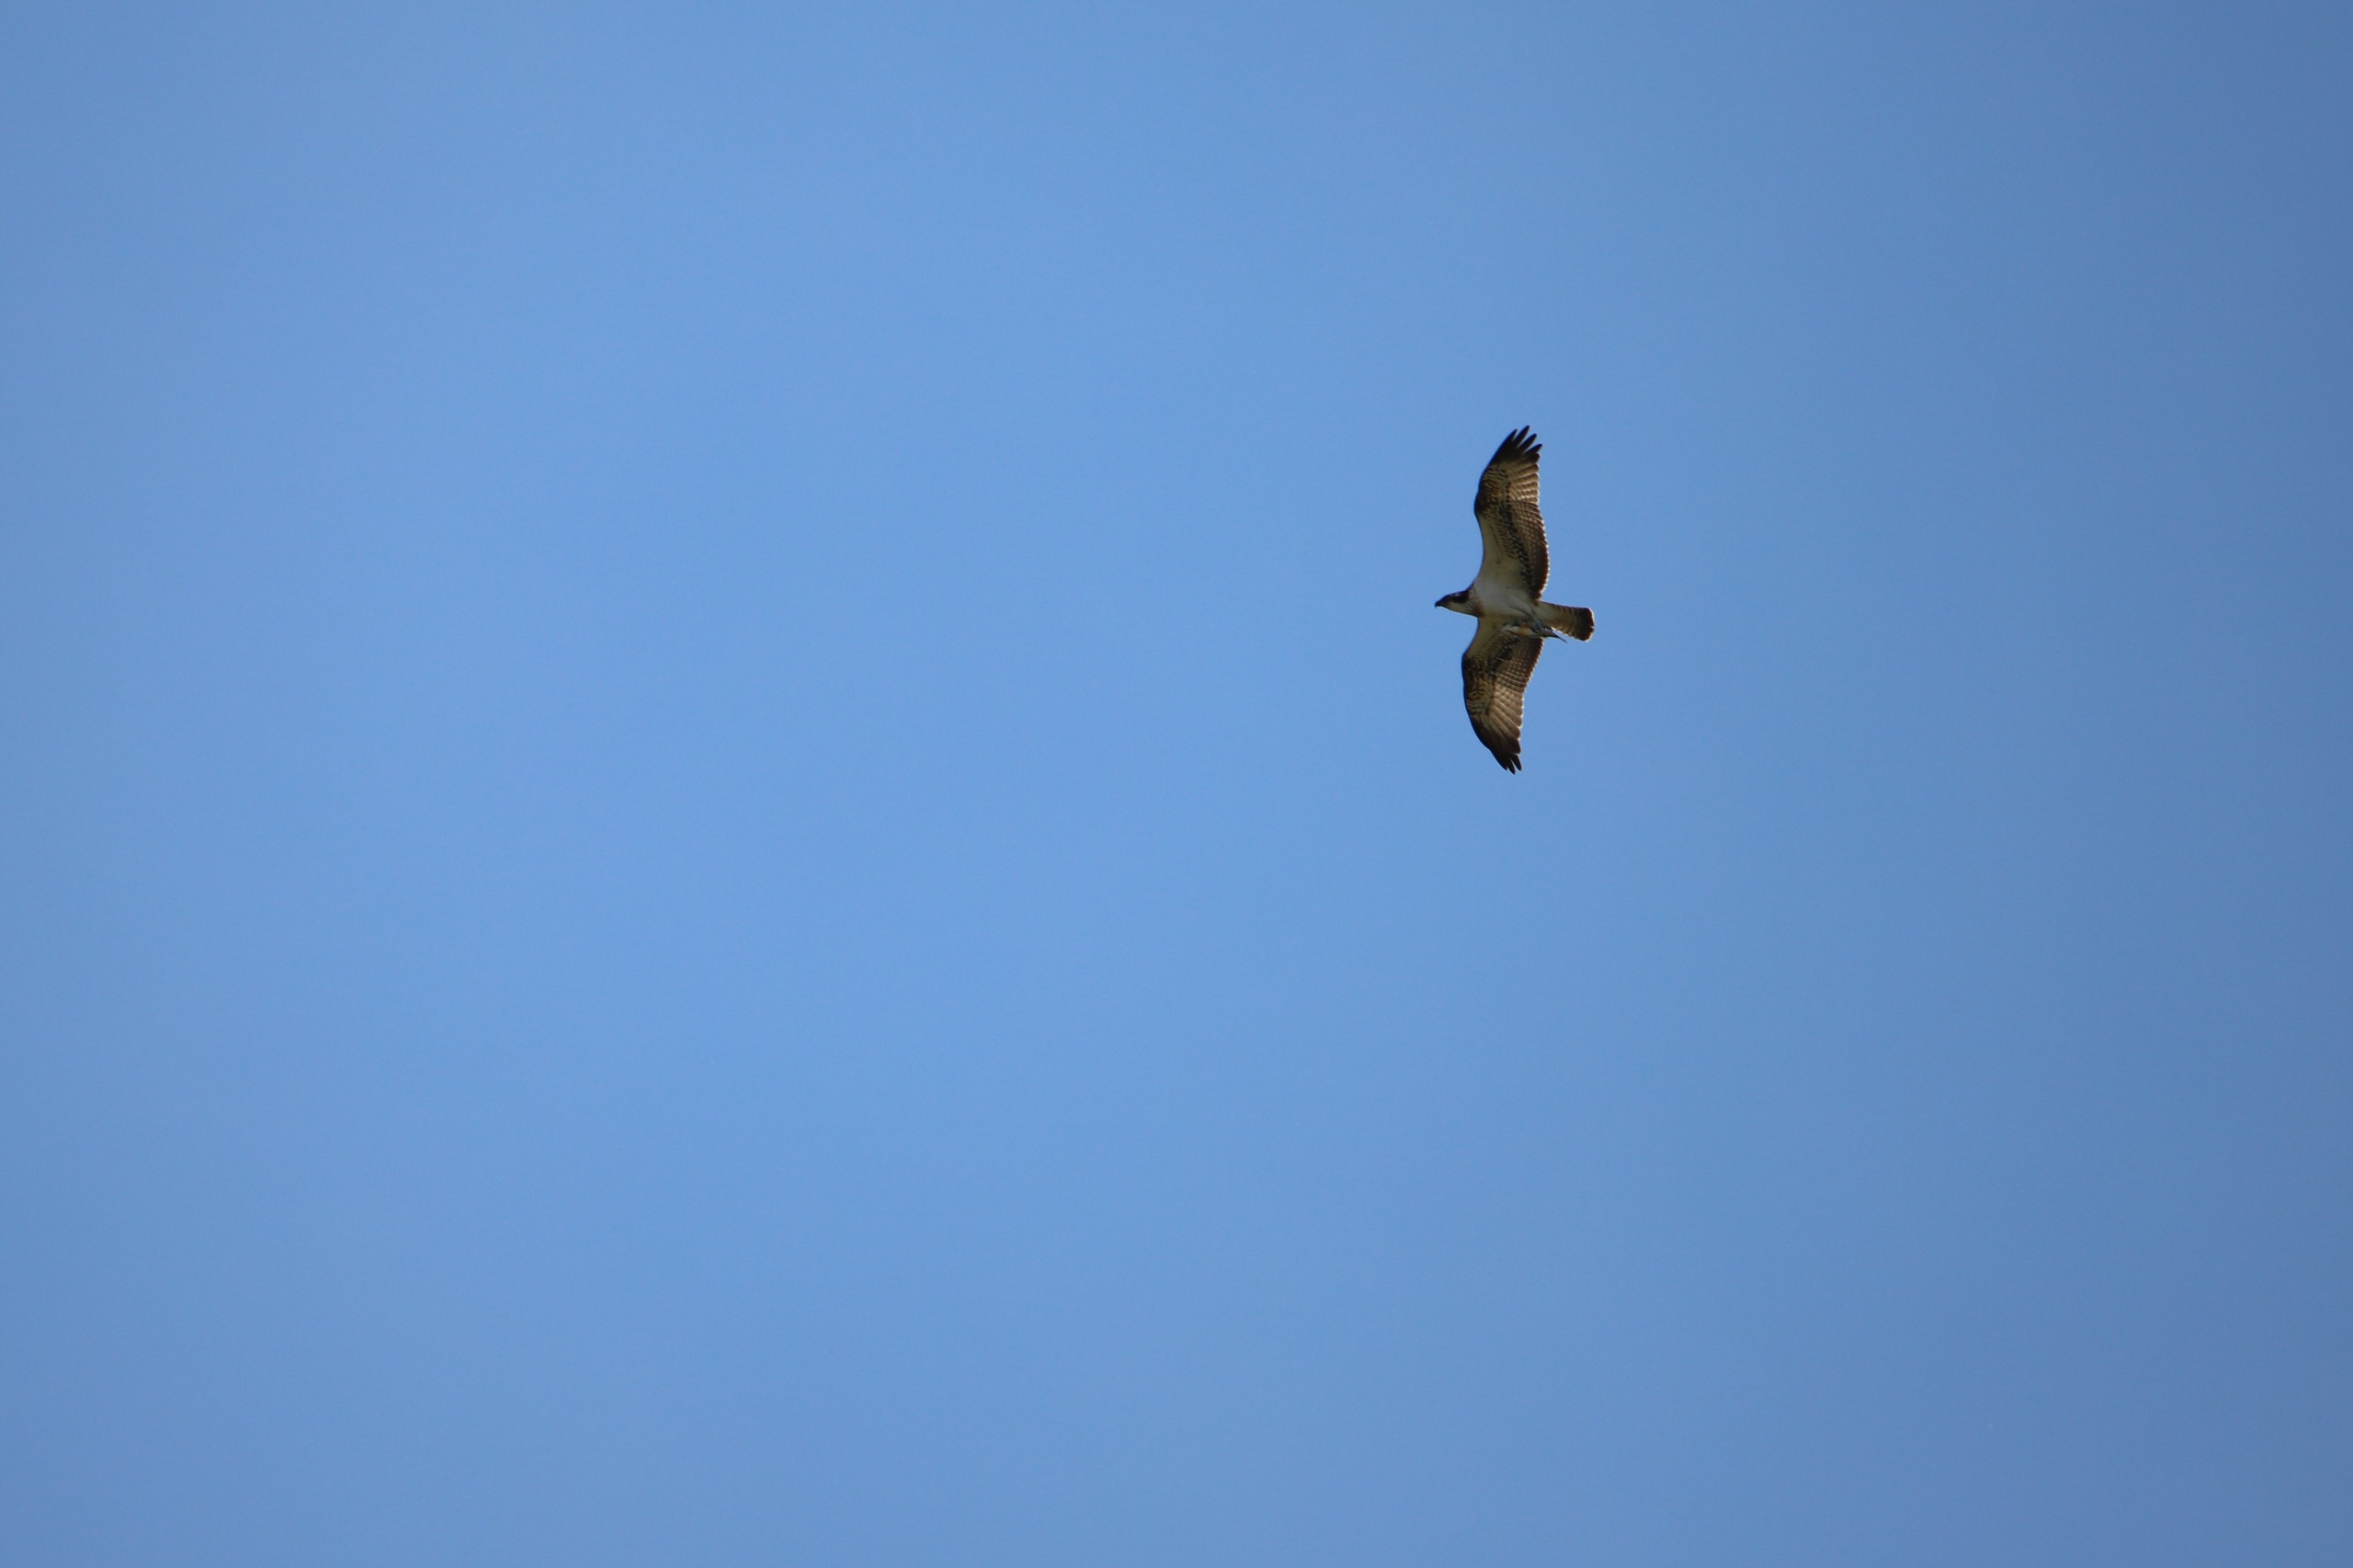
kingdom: Animalia
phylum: Chordata
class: Aves
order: Accipitriformes
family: Pandionidae
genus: Pandion
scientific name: Pandion haliaetus
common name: Fiskeørn
